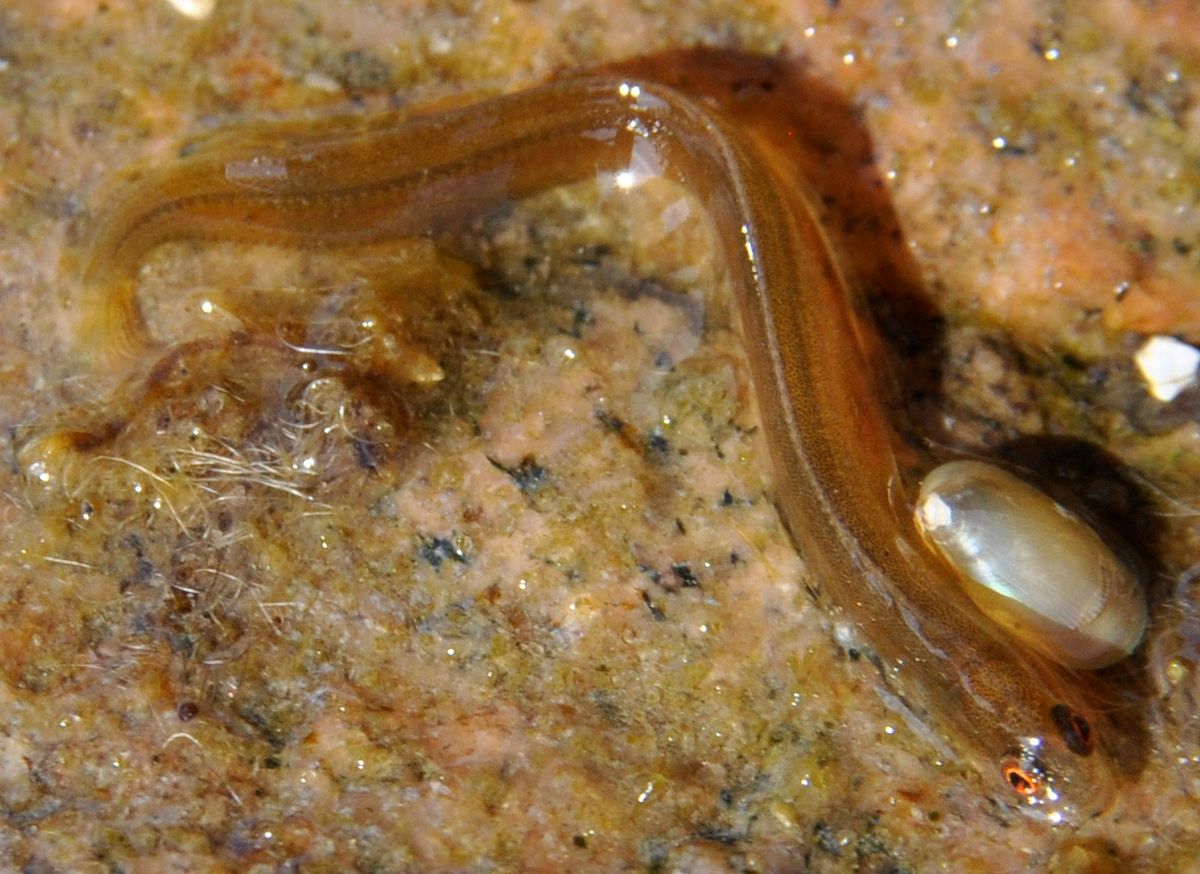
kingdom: Animalia
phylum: Chordata
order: Perciformes
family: Pholidae
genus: Pholis
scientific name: Pholis gunnellus
